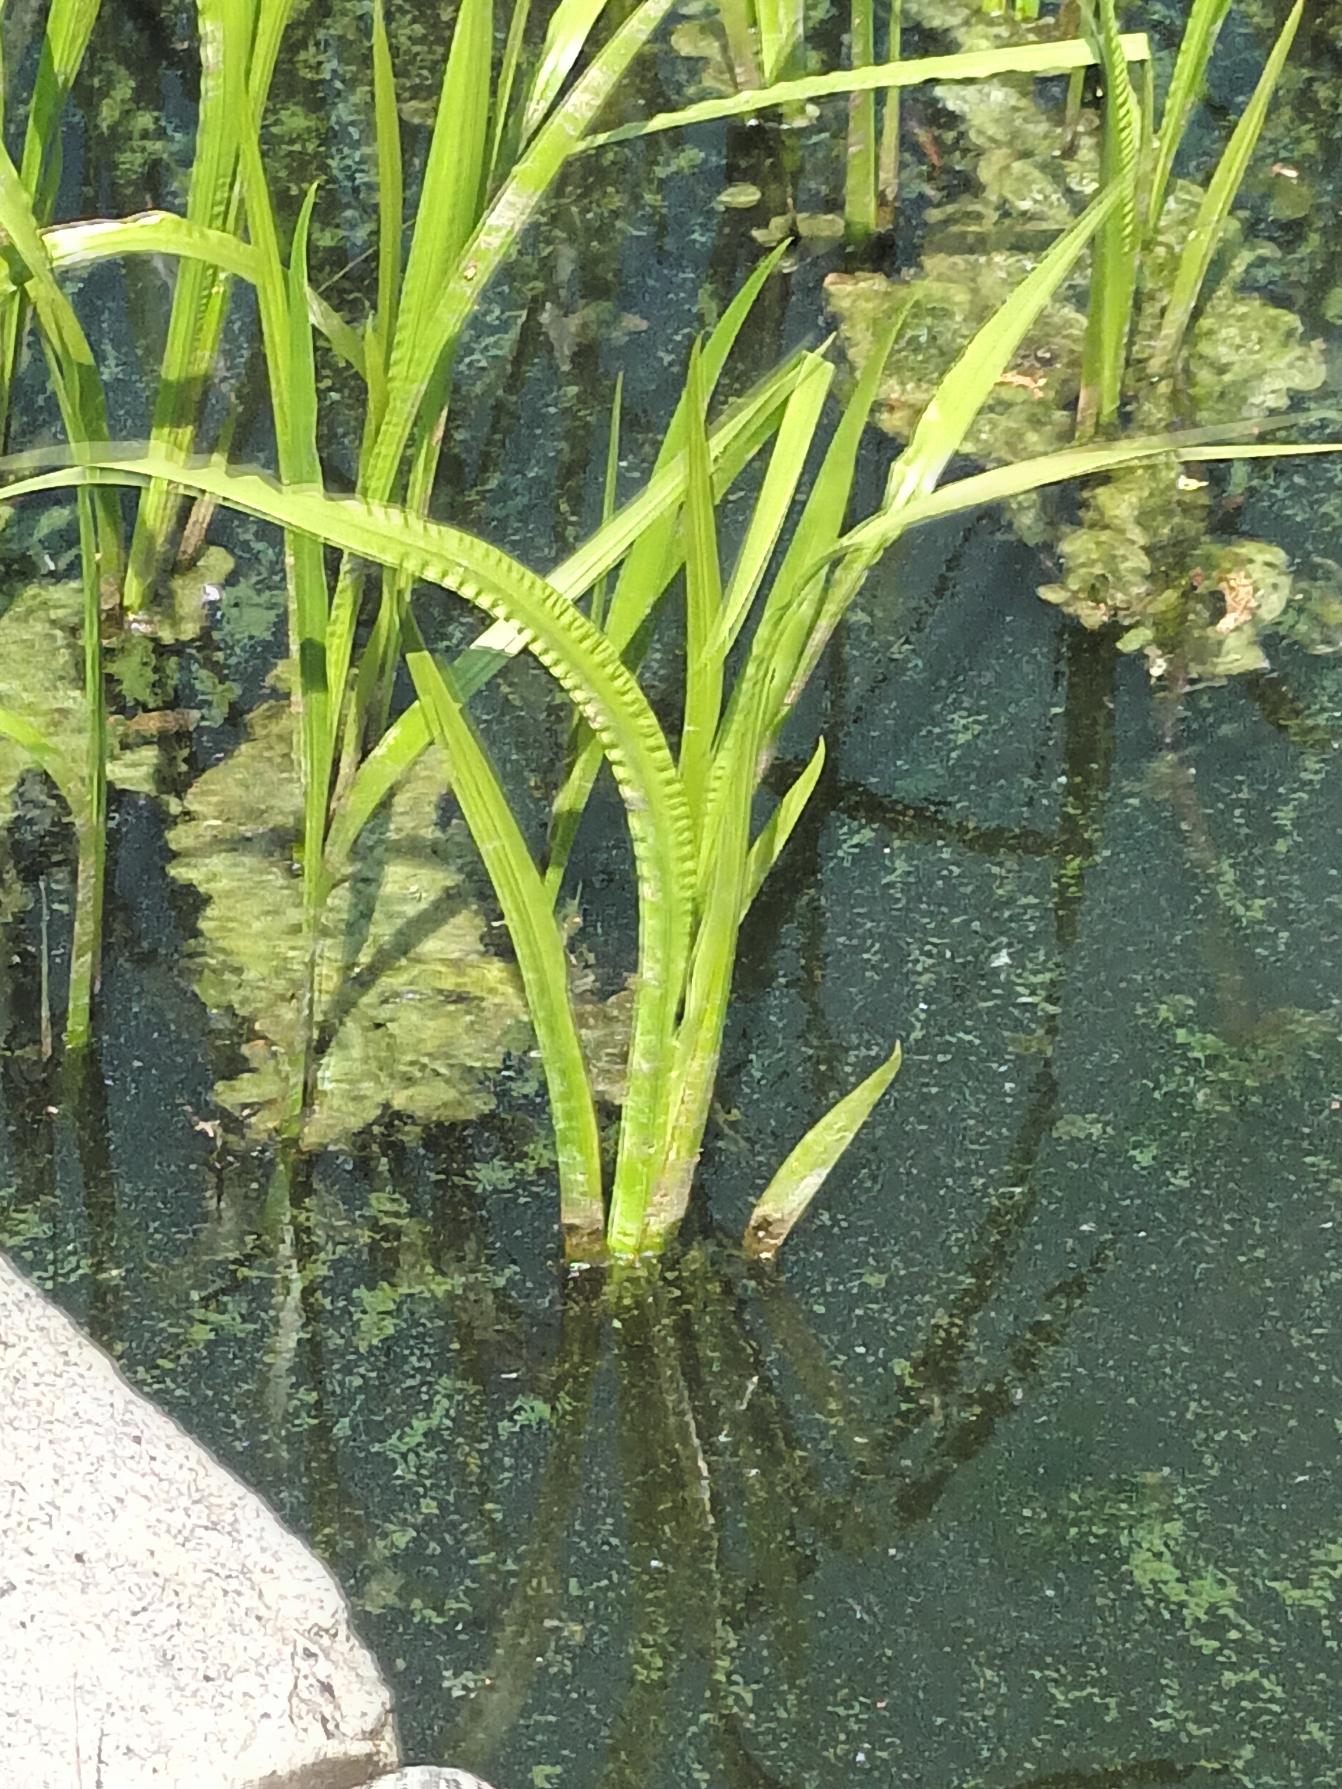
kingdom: Plantae
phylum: Tracheophyta
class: Liliopsida
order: Acorales
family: Acoraceae
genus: Acorus
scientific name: Acorus calamus
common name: Kalmus
